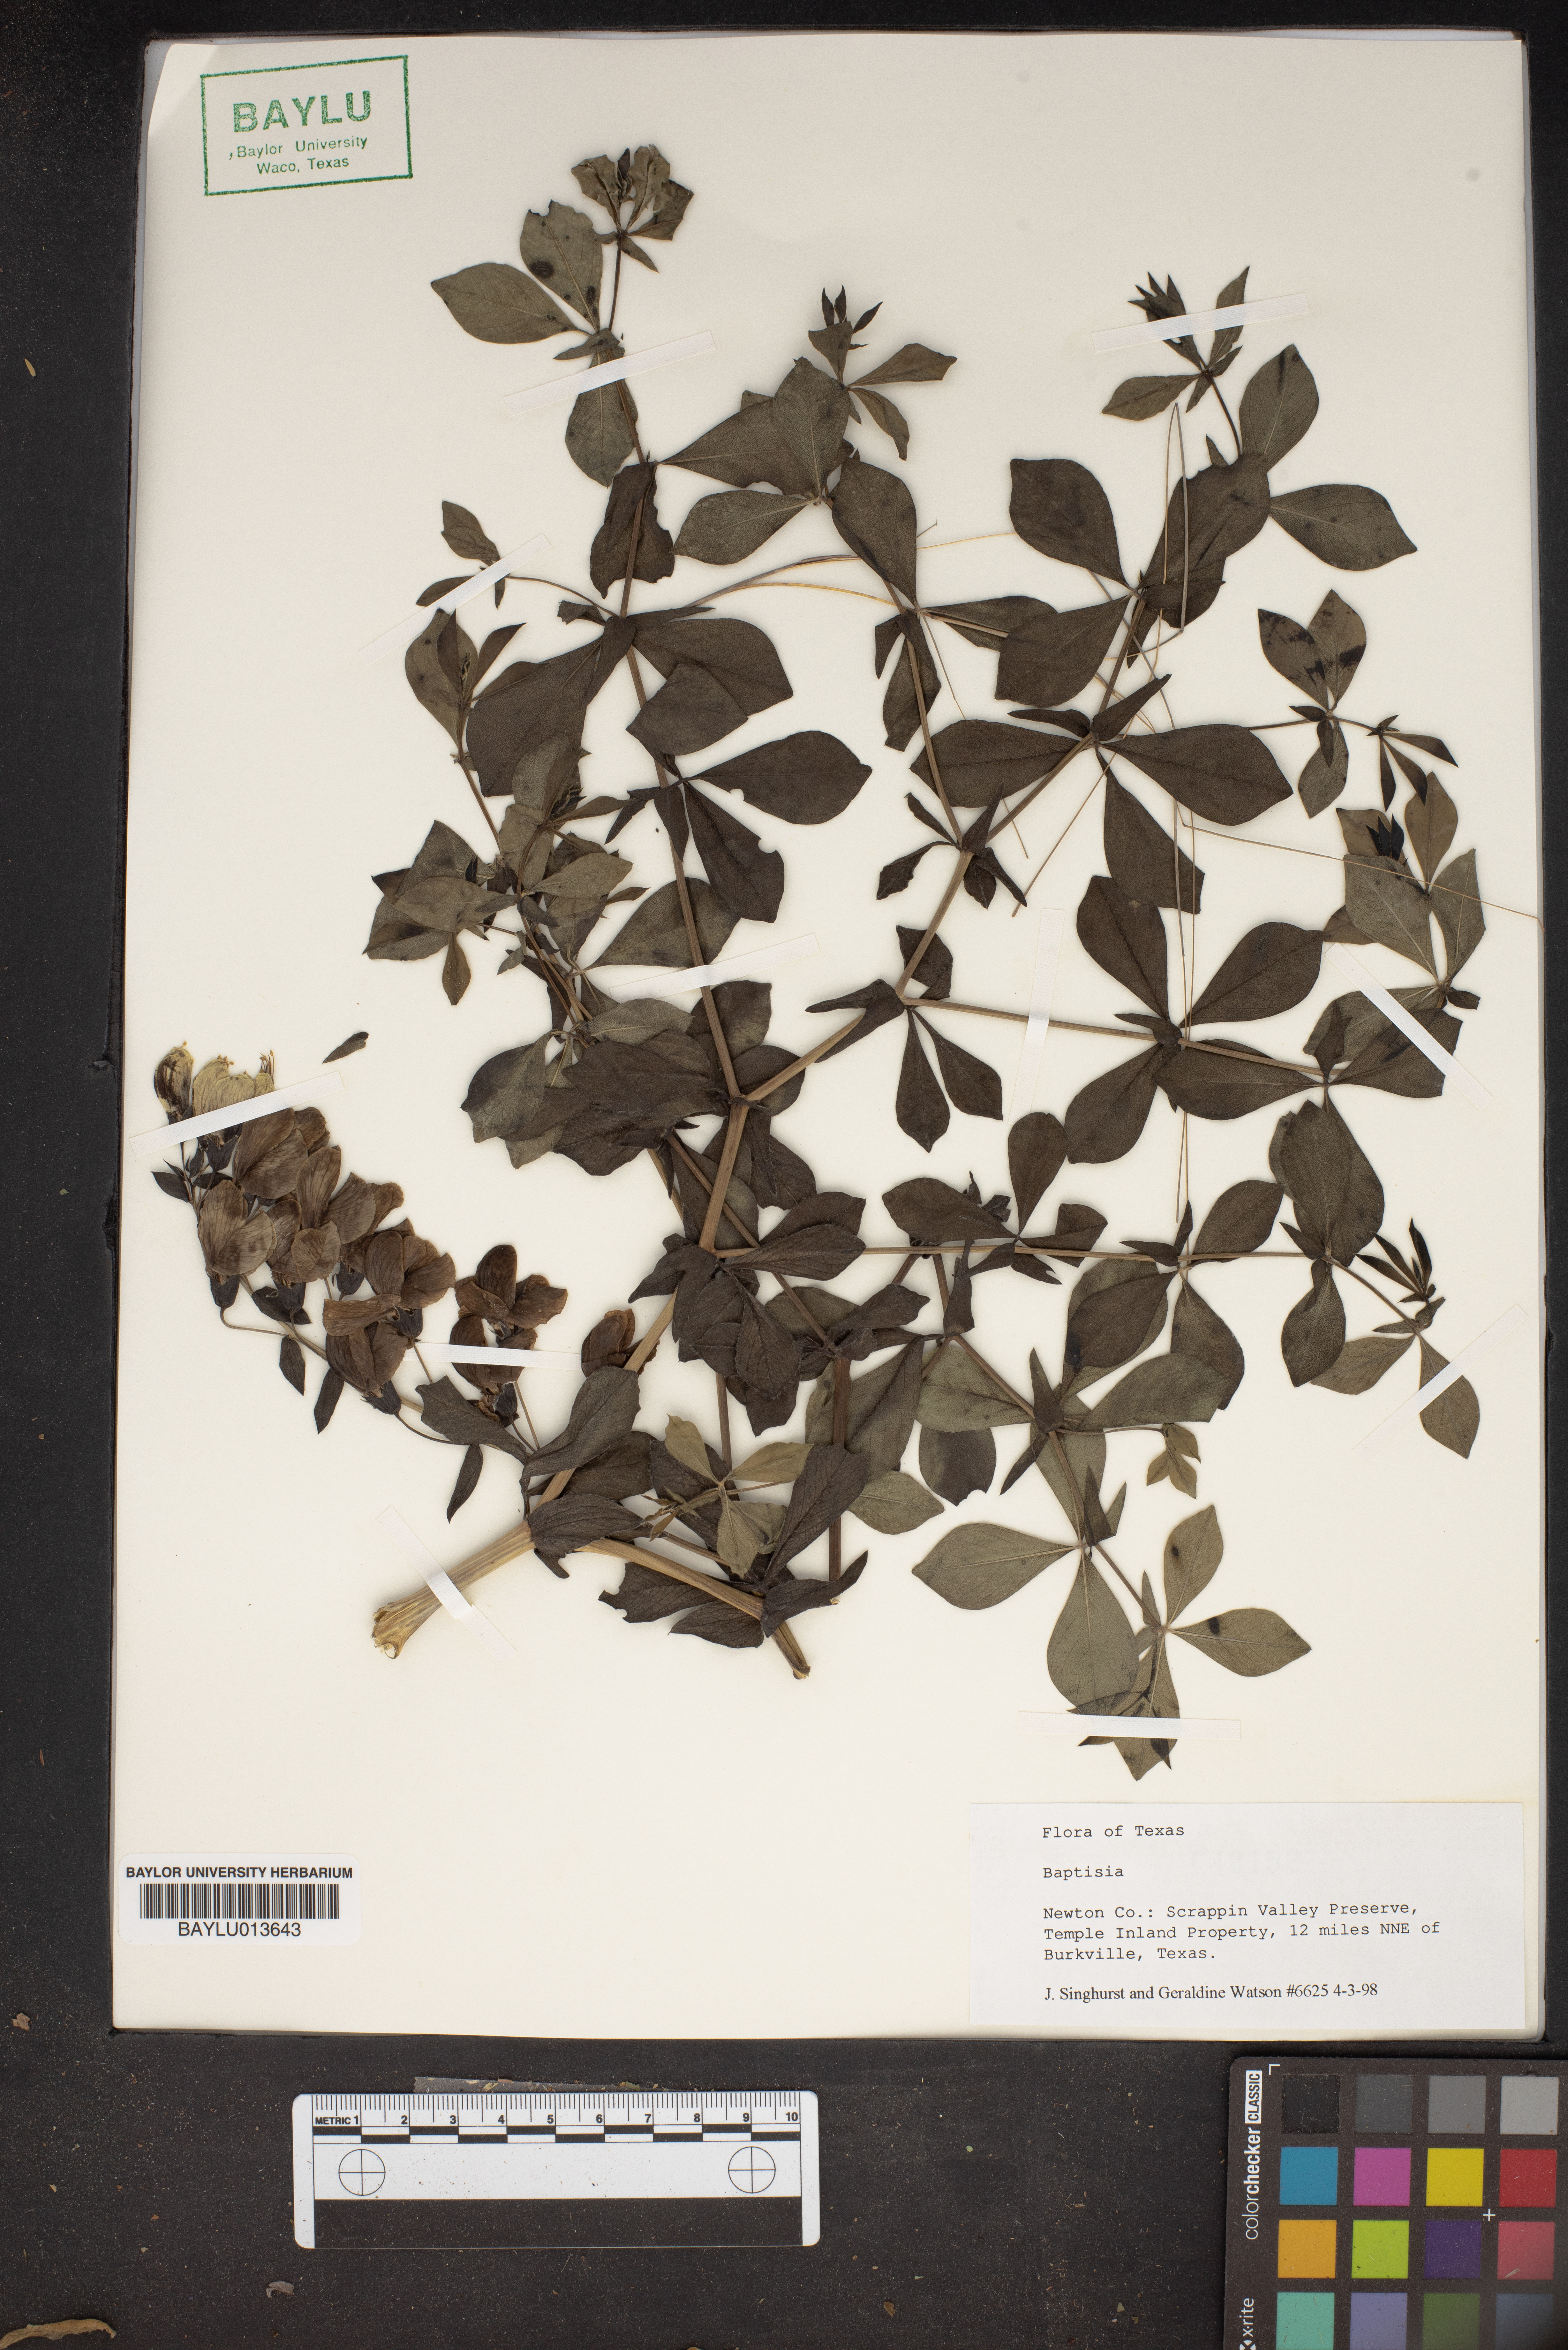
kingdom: Plantae
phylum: Tracheophyta
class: Magnoliopsida
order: Fabales
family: Fabaceae
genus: Baptisia
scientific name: Baptisia
